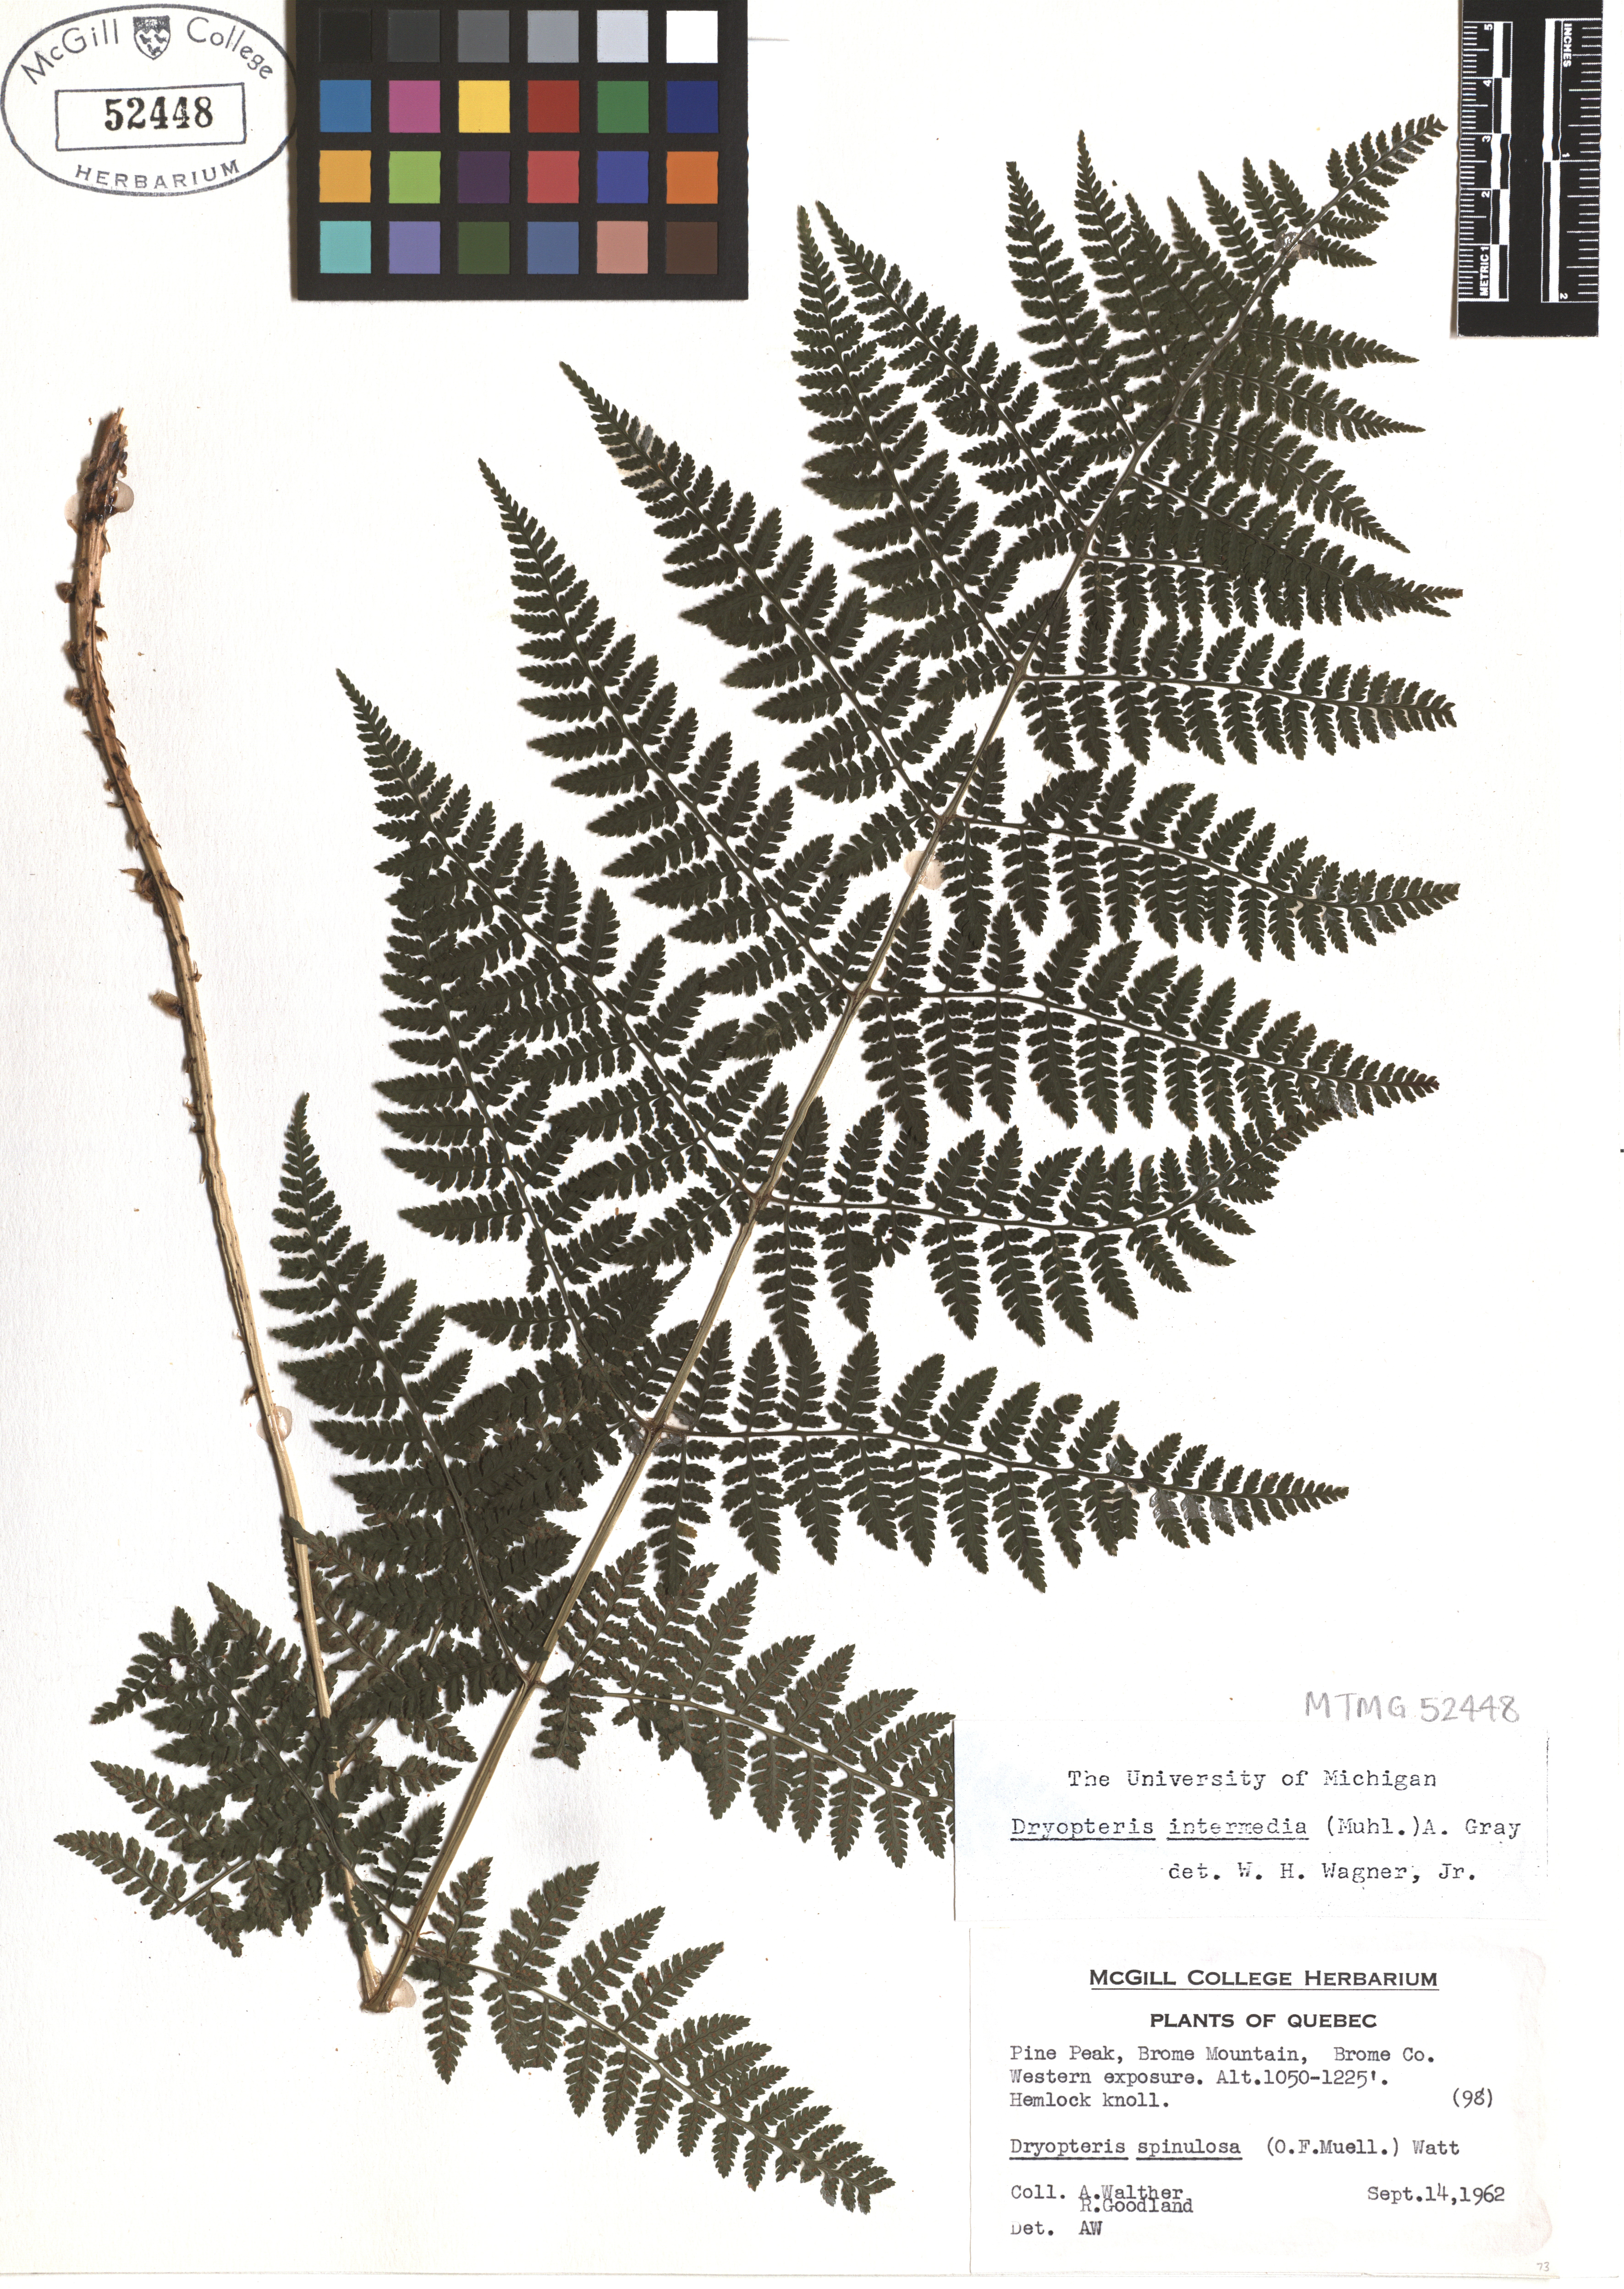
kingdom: Plantae
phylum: Tracheophyta
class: Polypodiopsida
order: Polypodiales
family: Dryopteridaceae
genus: Dryopteris
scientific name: Dryopteris intermedia
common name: Evergreen wood fern
